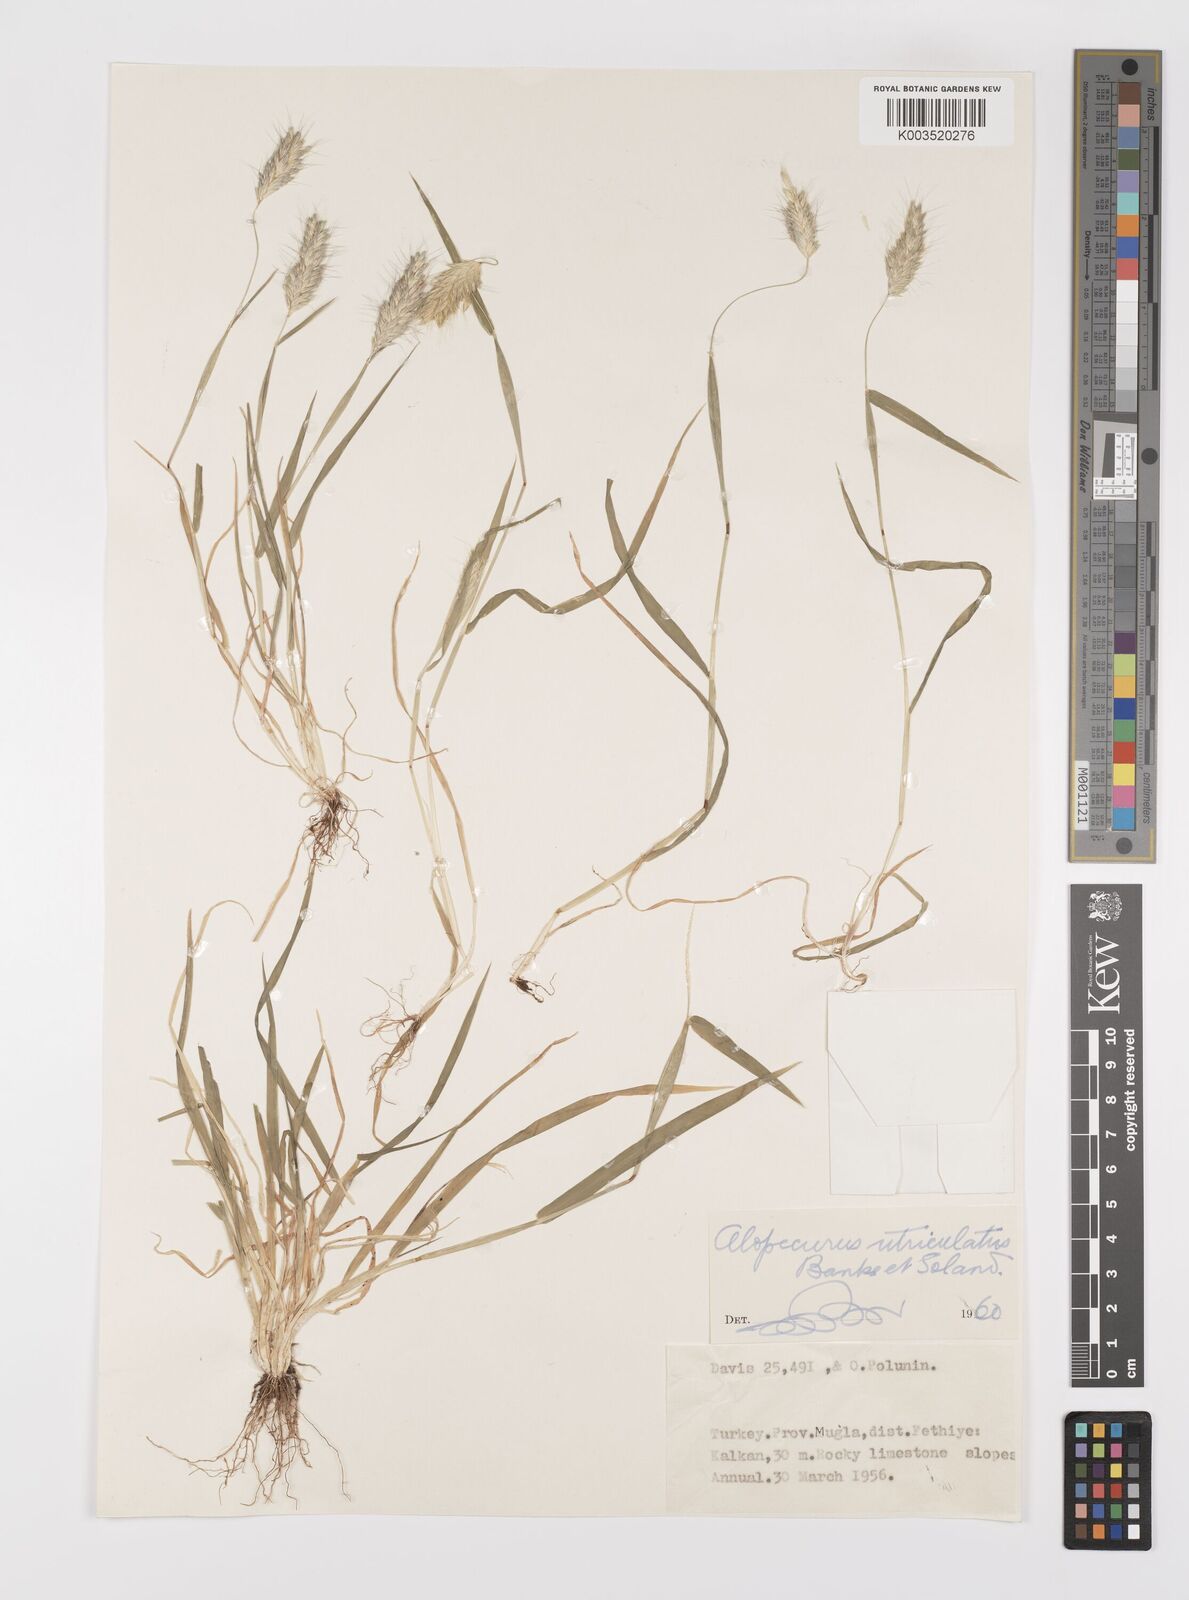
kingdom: Plantae
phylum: Tracheophyta
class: Liliopsida
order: Poales
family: Poaceae
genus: Alopecurus
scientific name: Alopecurus utriculatus
